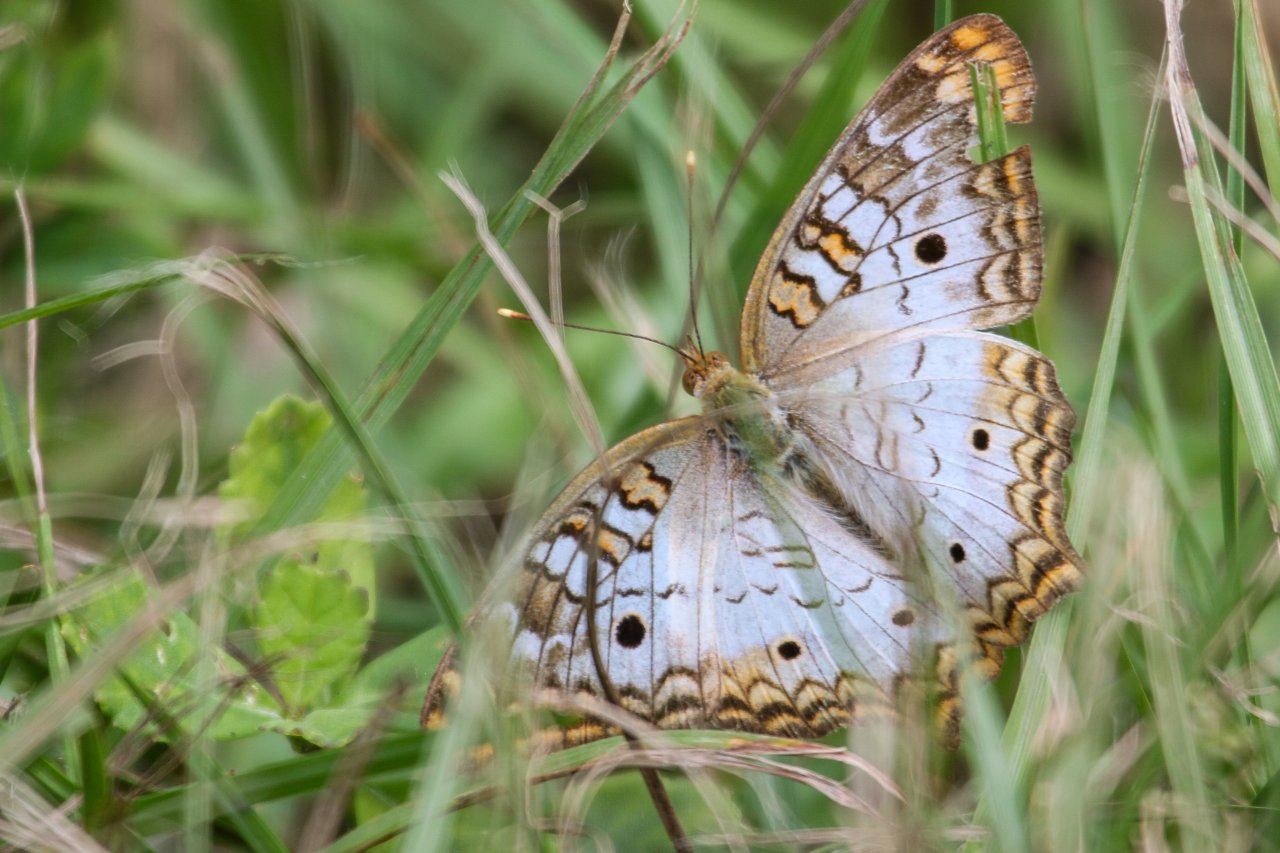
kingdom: Animalia
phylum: Arthropoda
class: Insecta
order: Lepidoptera
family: Nymphalidae
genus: Anartia
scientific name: Anartia jatrophae
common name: White Peacock
